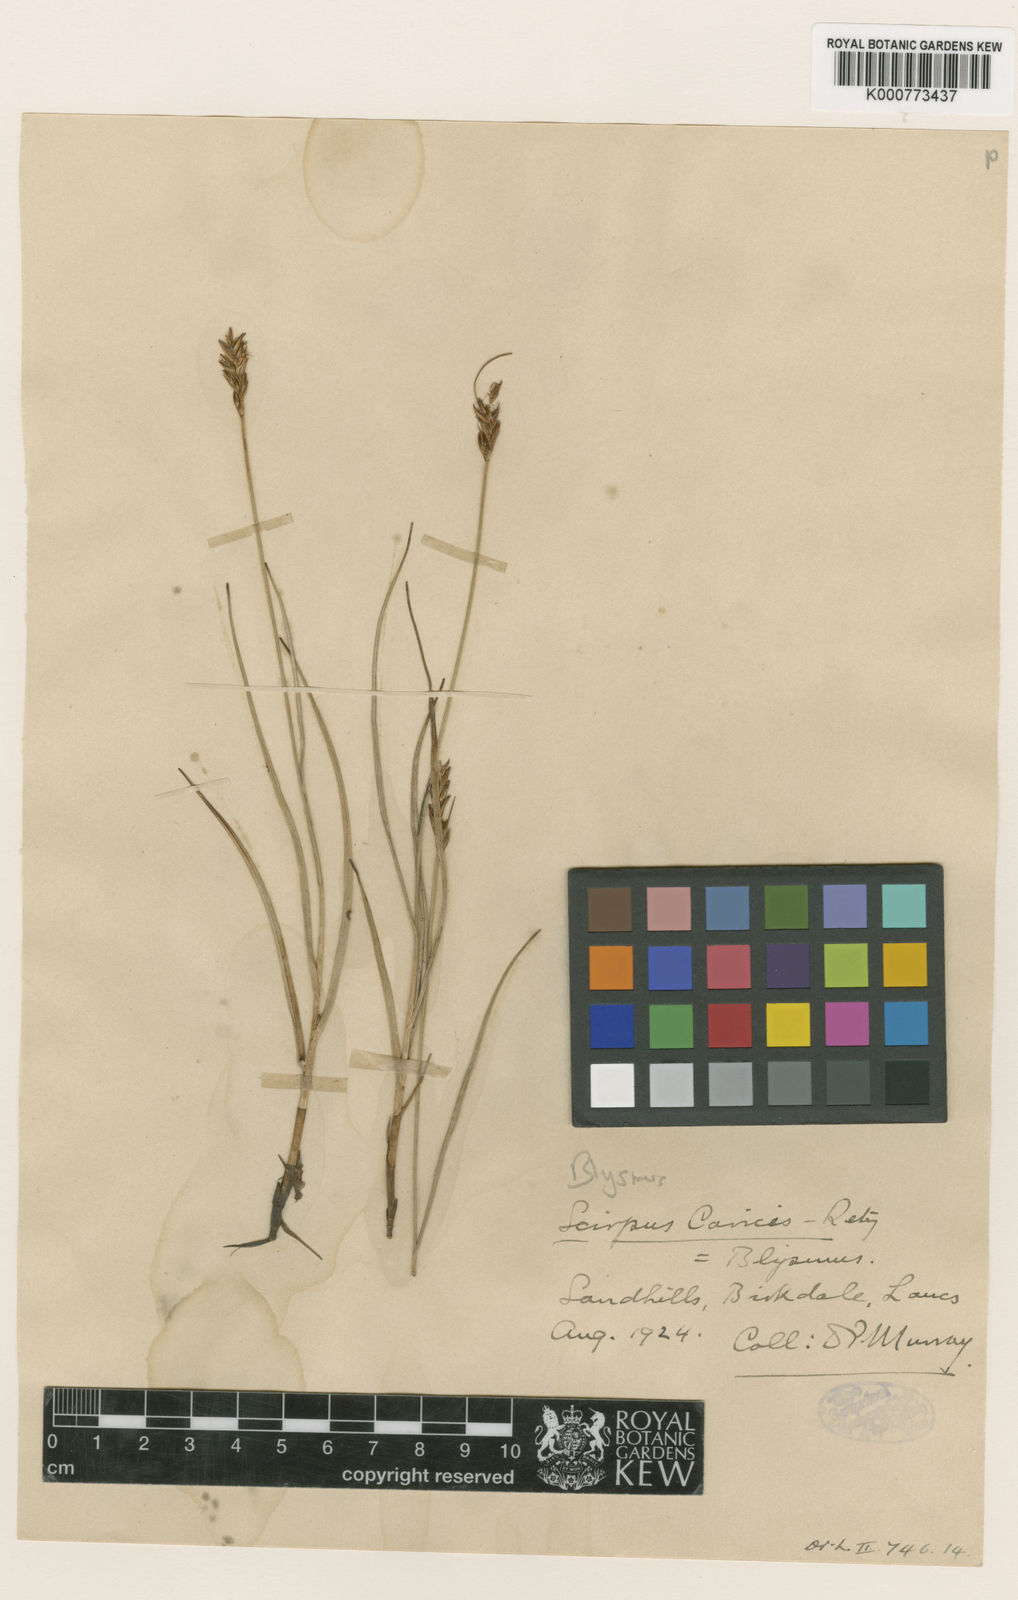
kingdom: Plantae
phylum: Tracheophyta
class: Liliopsida
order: Poales
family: Cyperaceae
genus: Blysmus
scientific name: Blysmus compressus
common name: Flat-sedge
